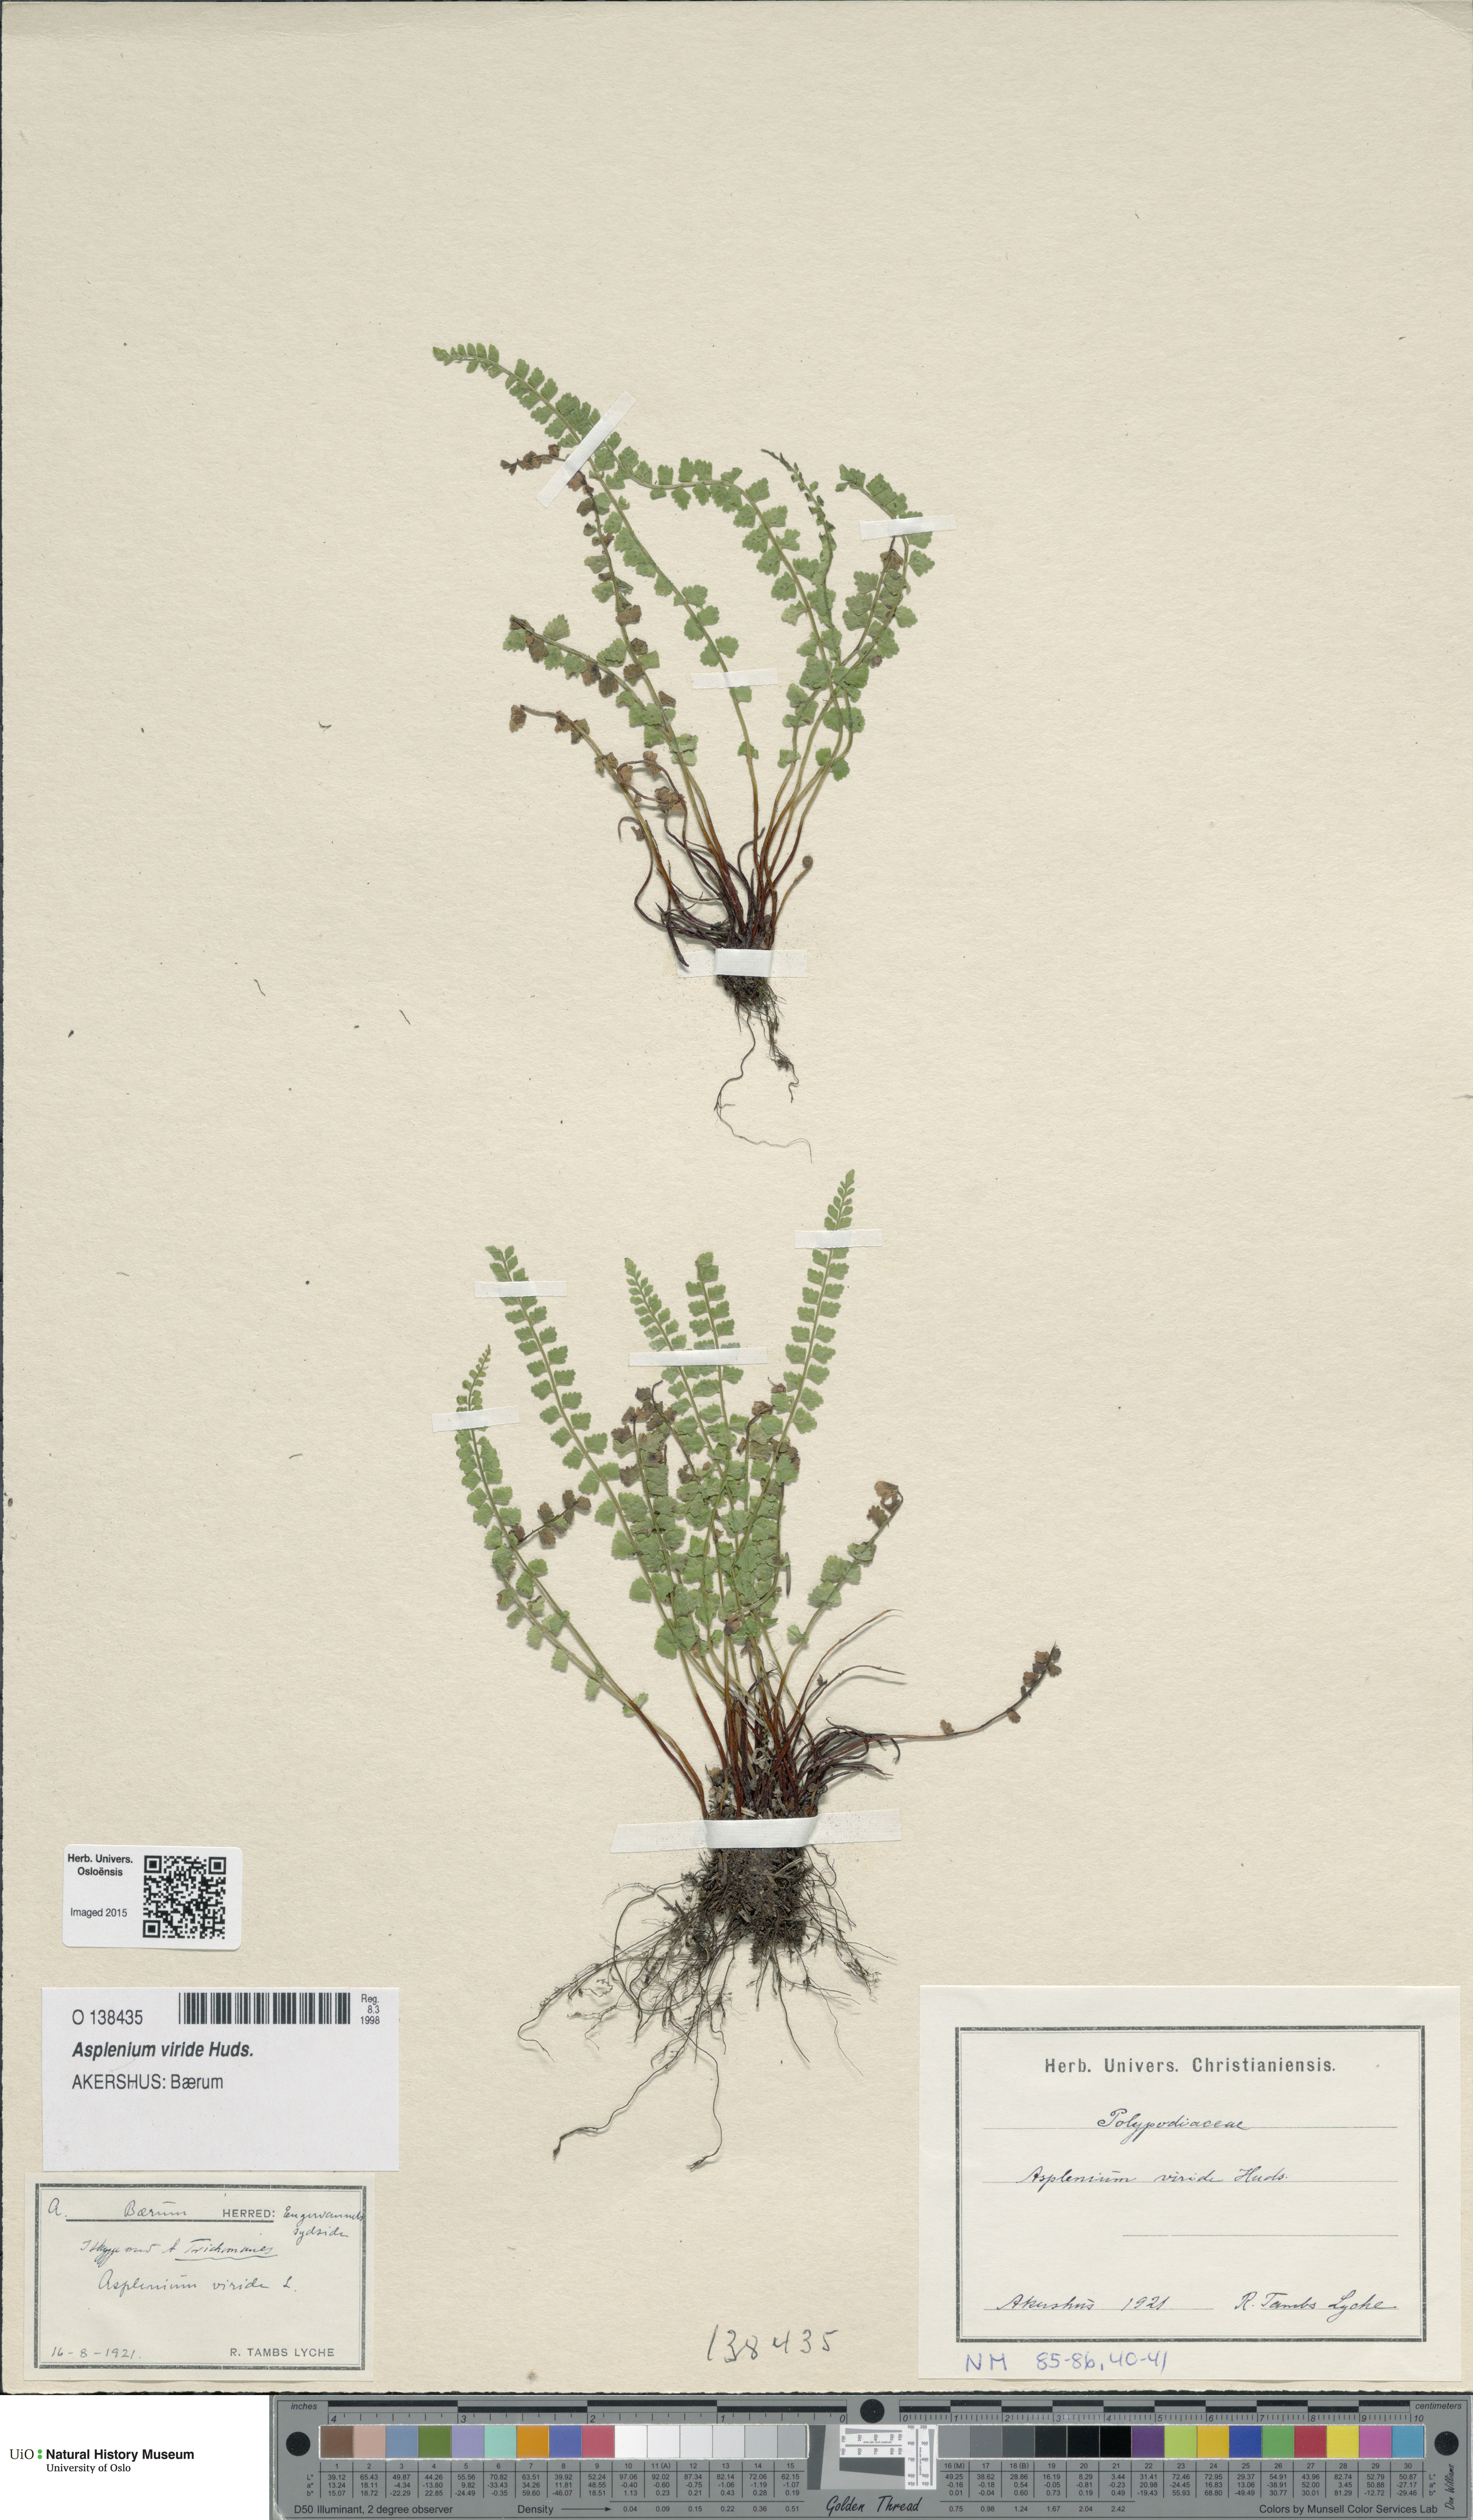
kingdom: Plantae
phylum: Tracheophyta
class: Polypodiopsida
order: Polypodiales
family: Aspleniaceae
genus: Asplenium
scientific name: Asplenium viride
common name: Green spleenwort
